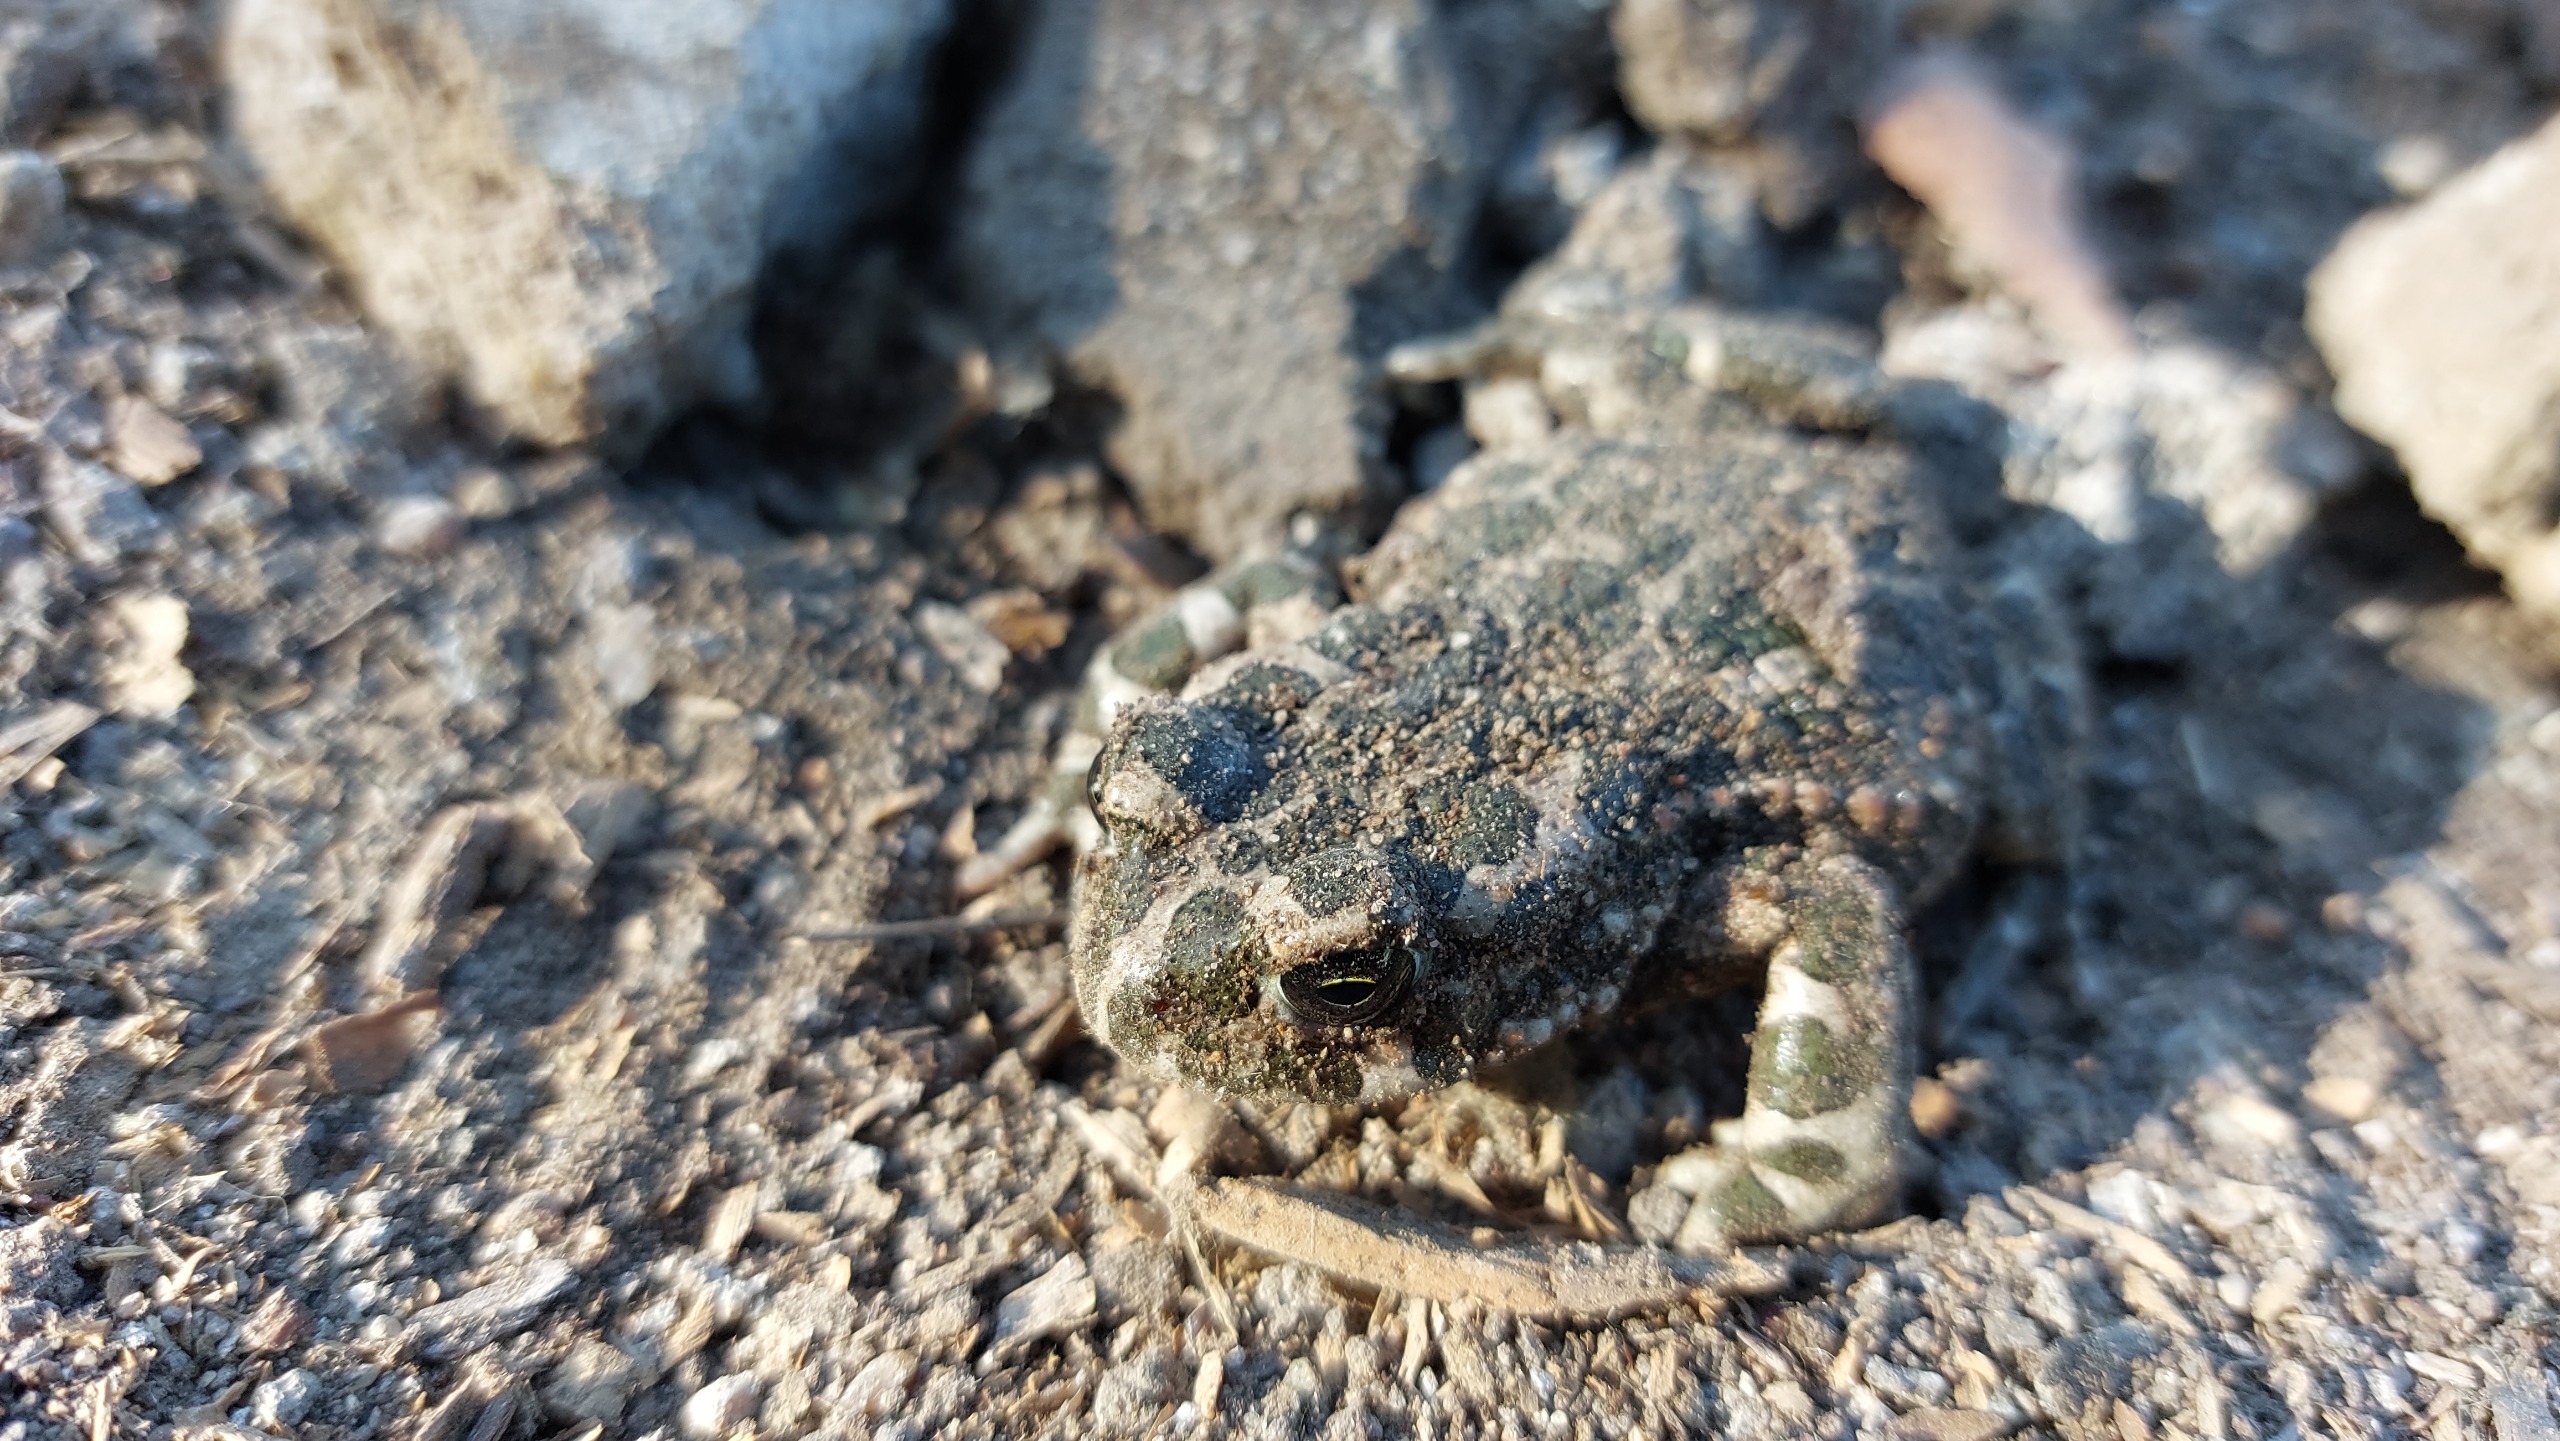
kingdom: Animalia
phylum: Chordata
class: Amphibia
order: Anura
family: Bufonidae
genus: Bufotes
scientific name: Bufotes viridis
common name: Grønbroget tudse
